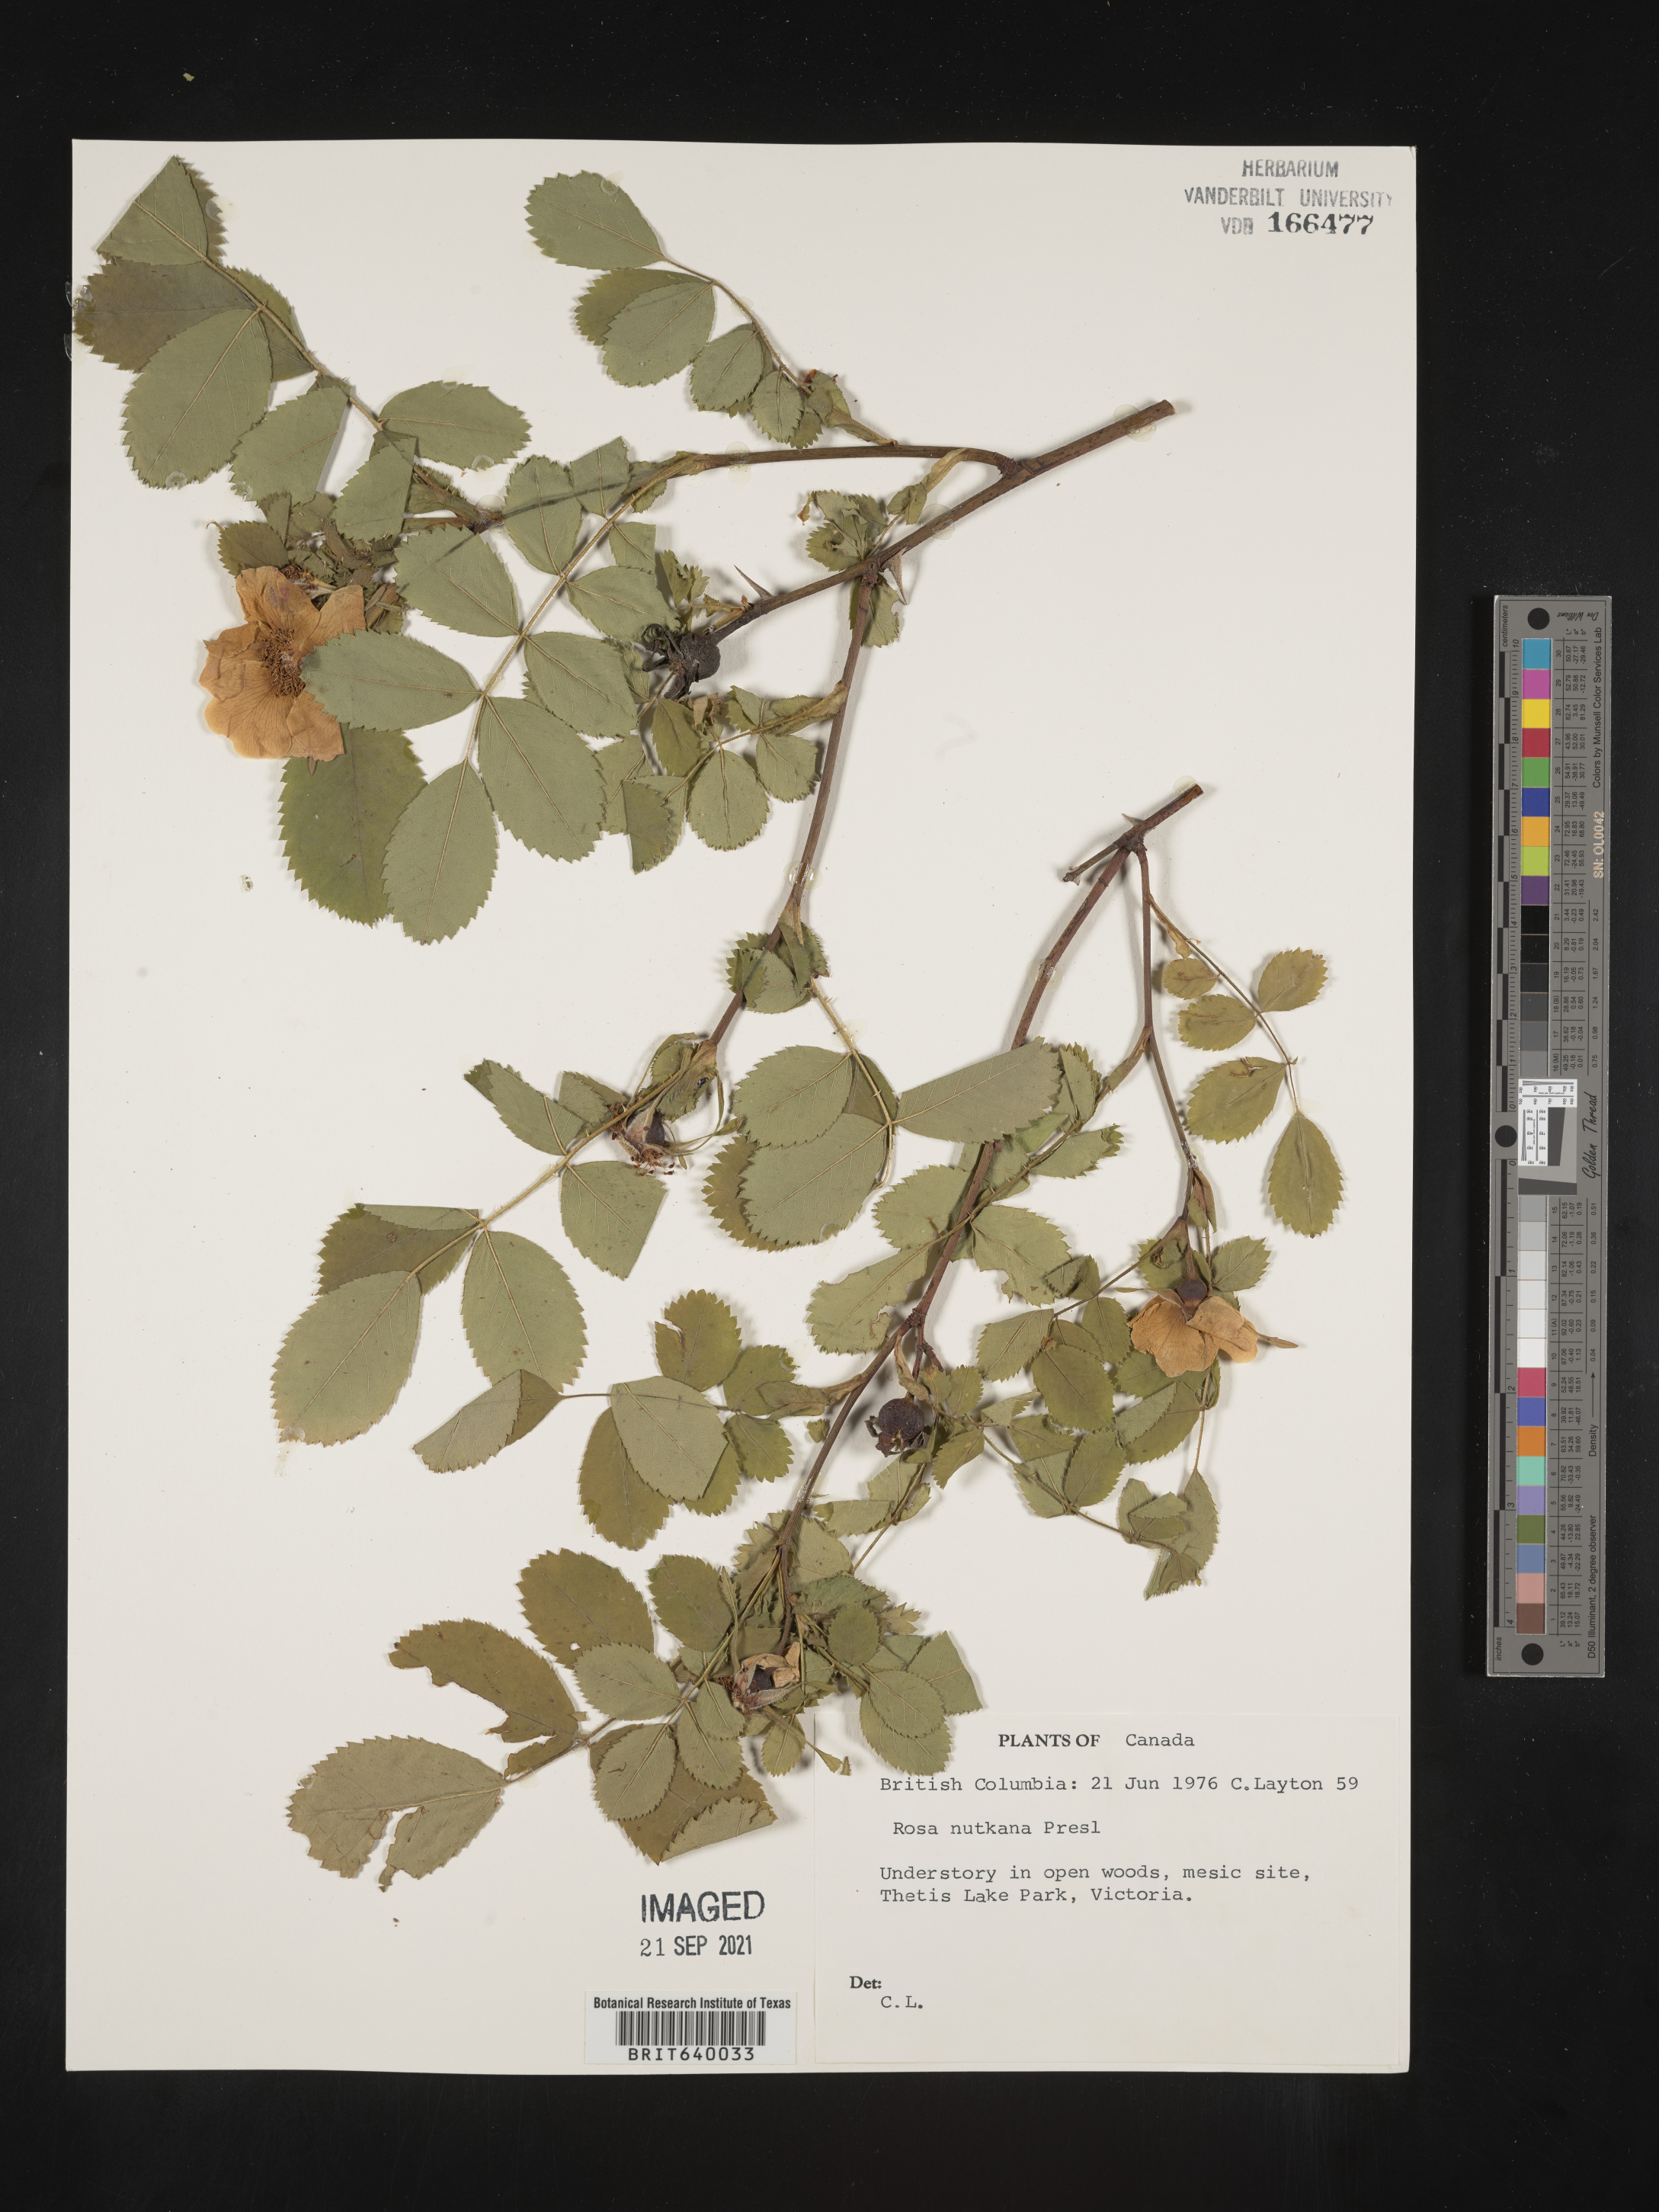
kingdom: Plantae
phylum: Tracheophyta
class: Magnoliopsida
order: Rosales
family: Rosaceae
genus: Rosa
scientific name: Rosa
